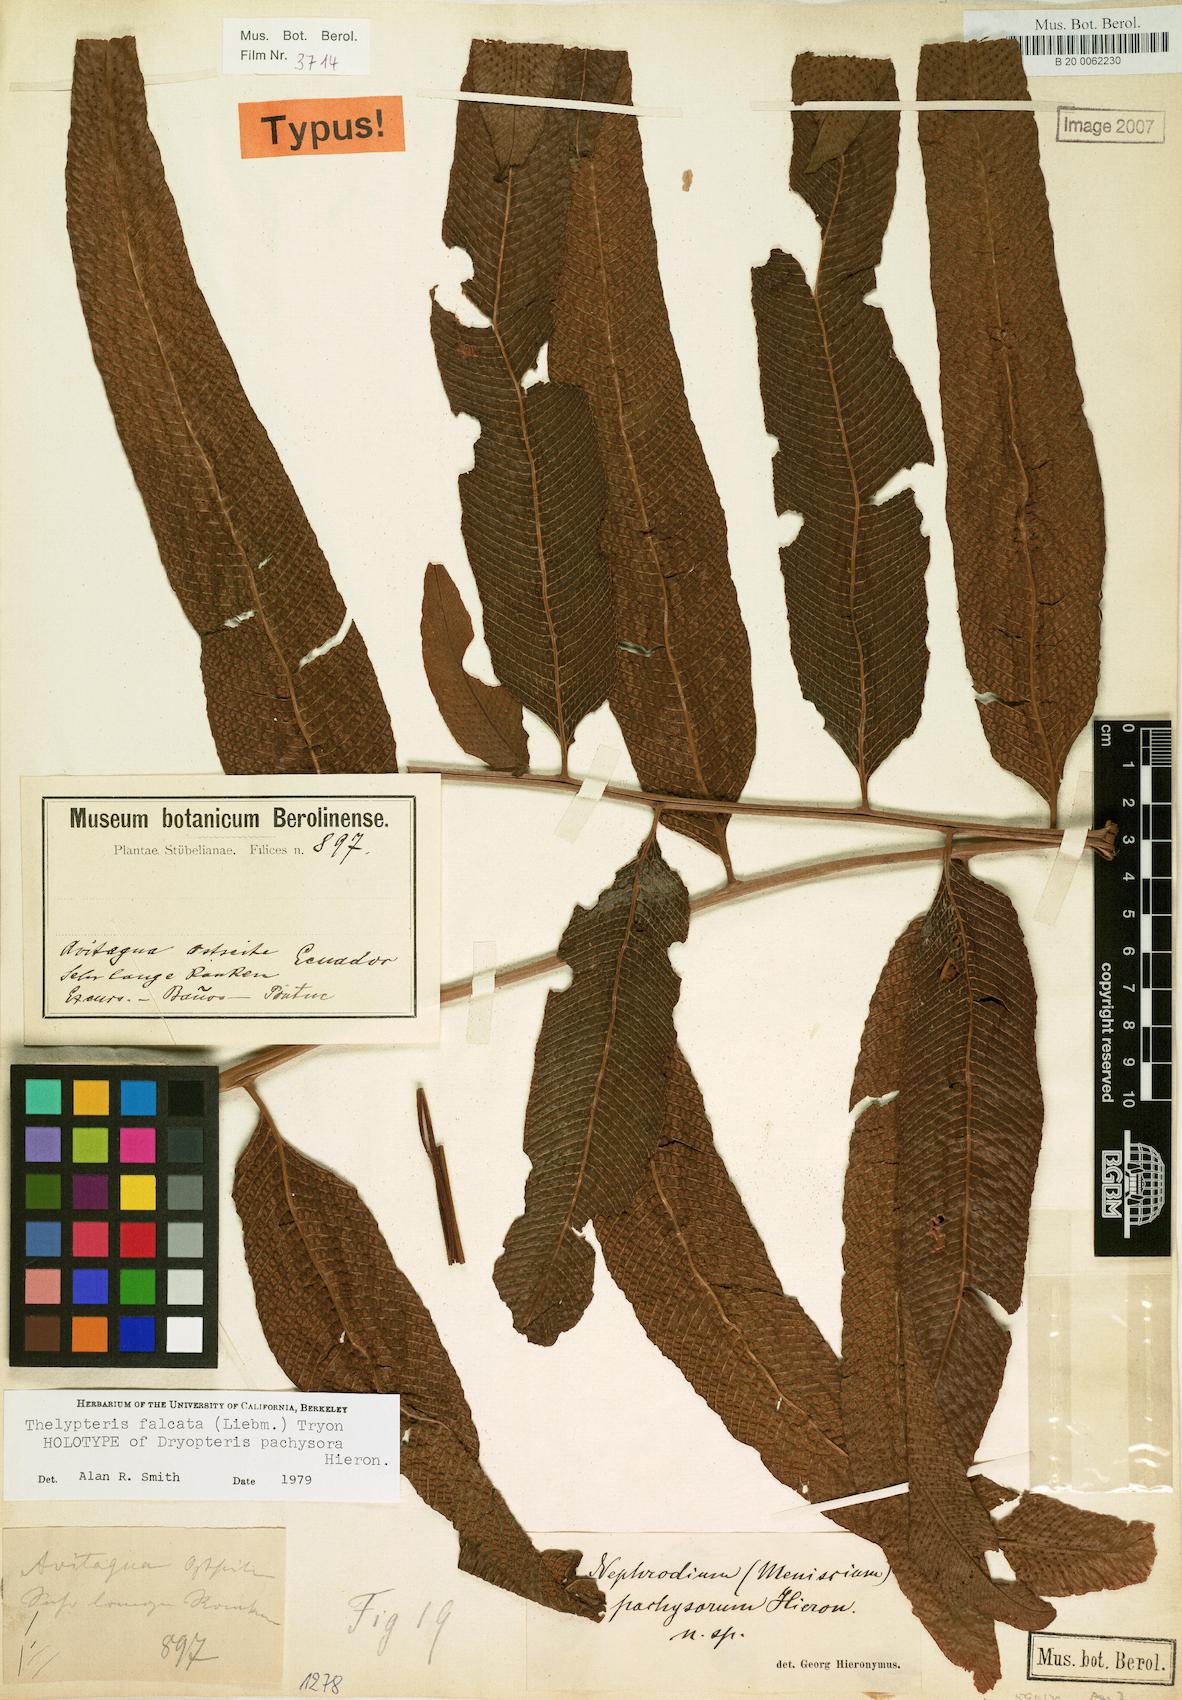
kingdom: Plantae
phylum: Tracheophyta
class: Polypodiopsida
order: Polypodiales
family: Thelypteridaceae
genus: Meniscium
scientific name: Meniscium falcatum
